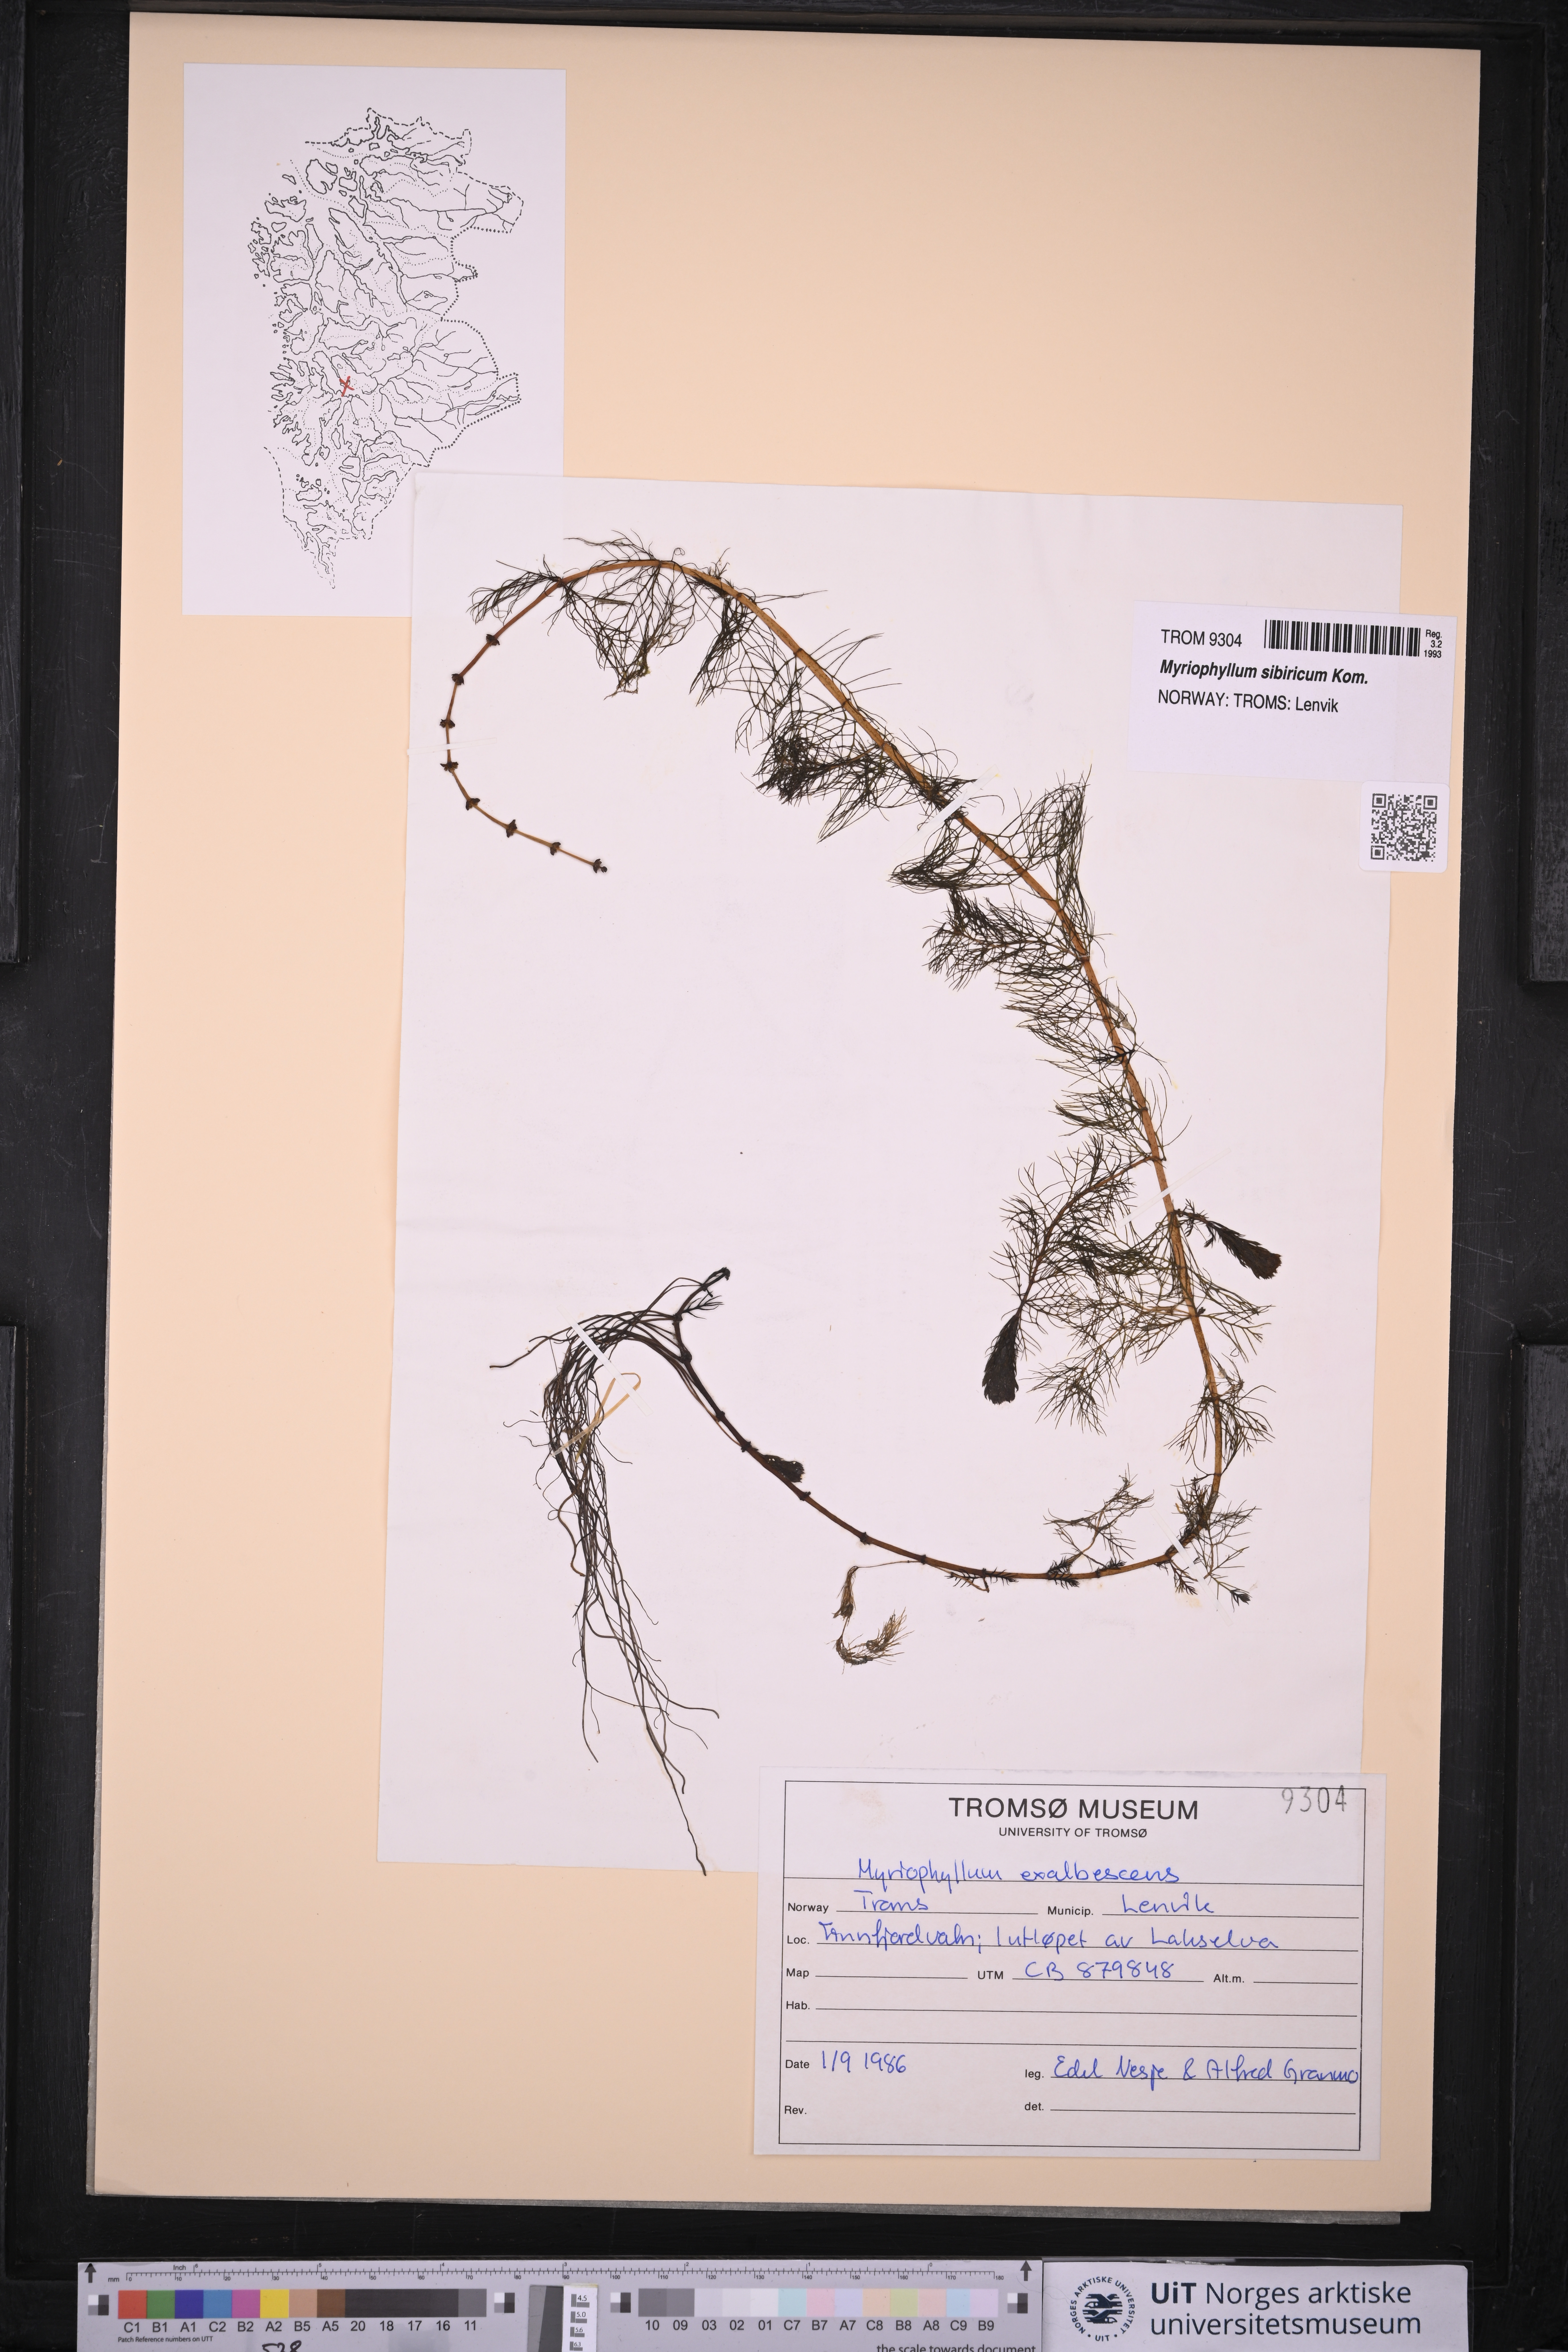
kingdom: Plantae
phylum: Tracheophyta
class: Magnoliopsida
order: Saxifragales
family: Haloragaceae
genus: Myriophyllum
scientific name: Myriophyllum sibiricum
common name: Siberian water-milfoil
